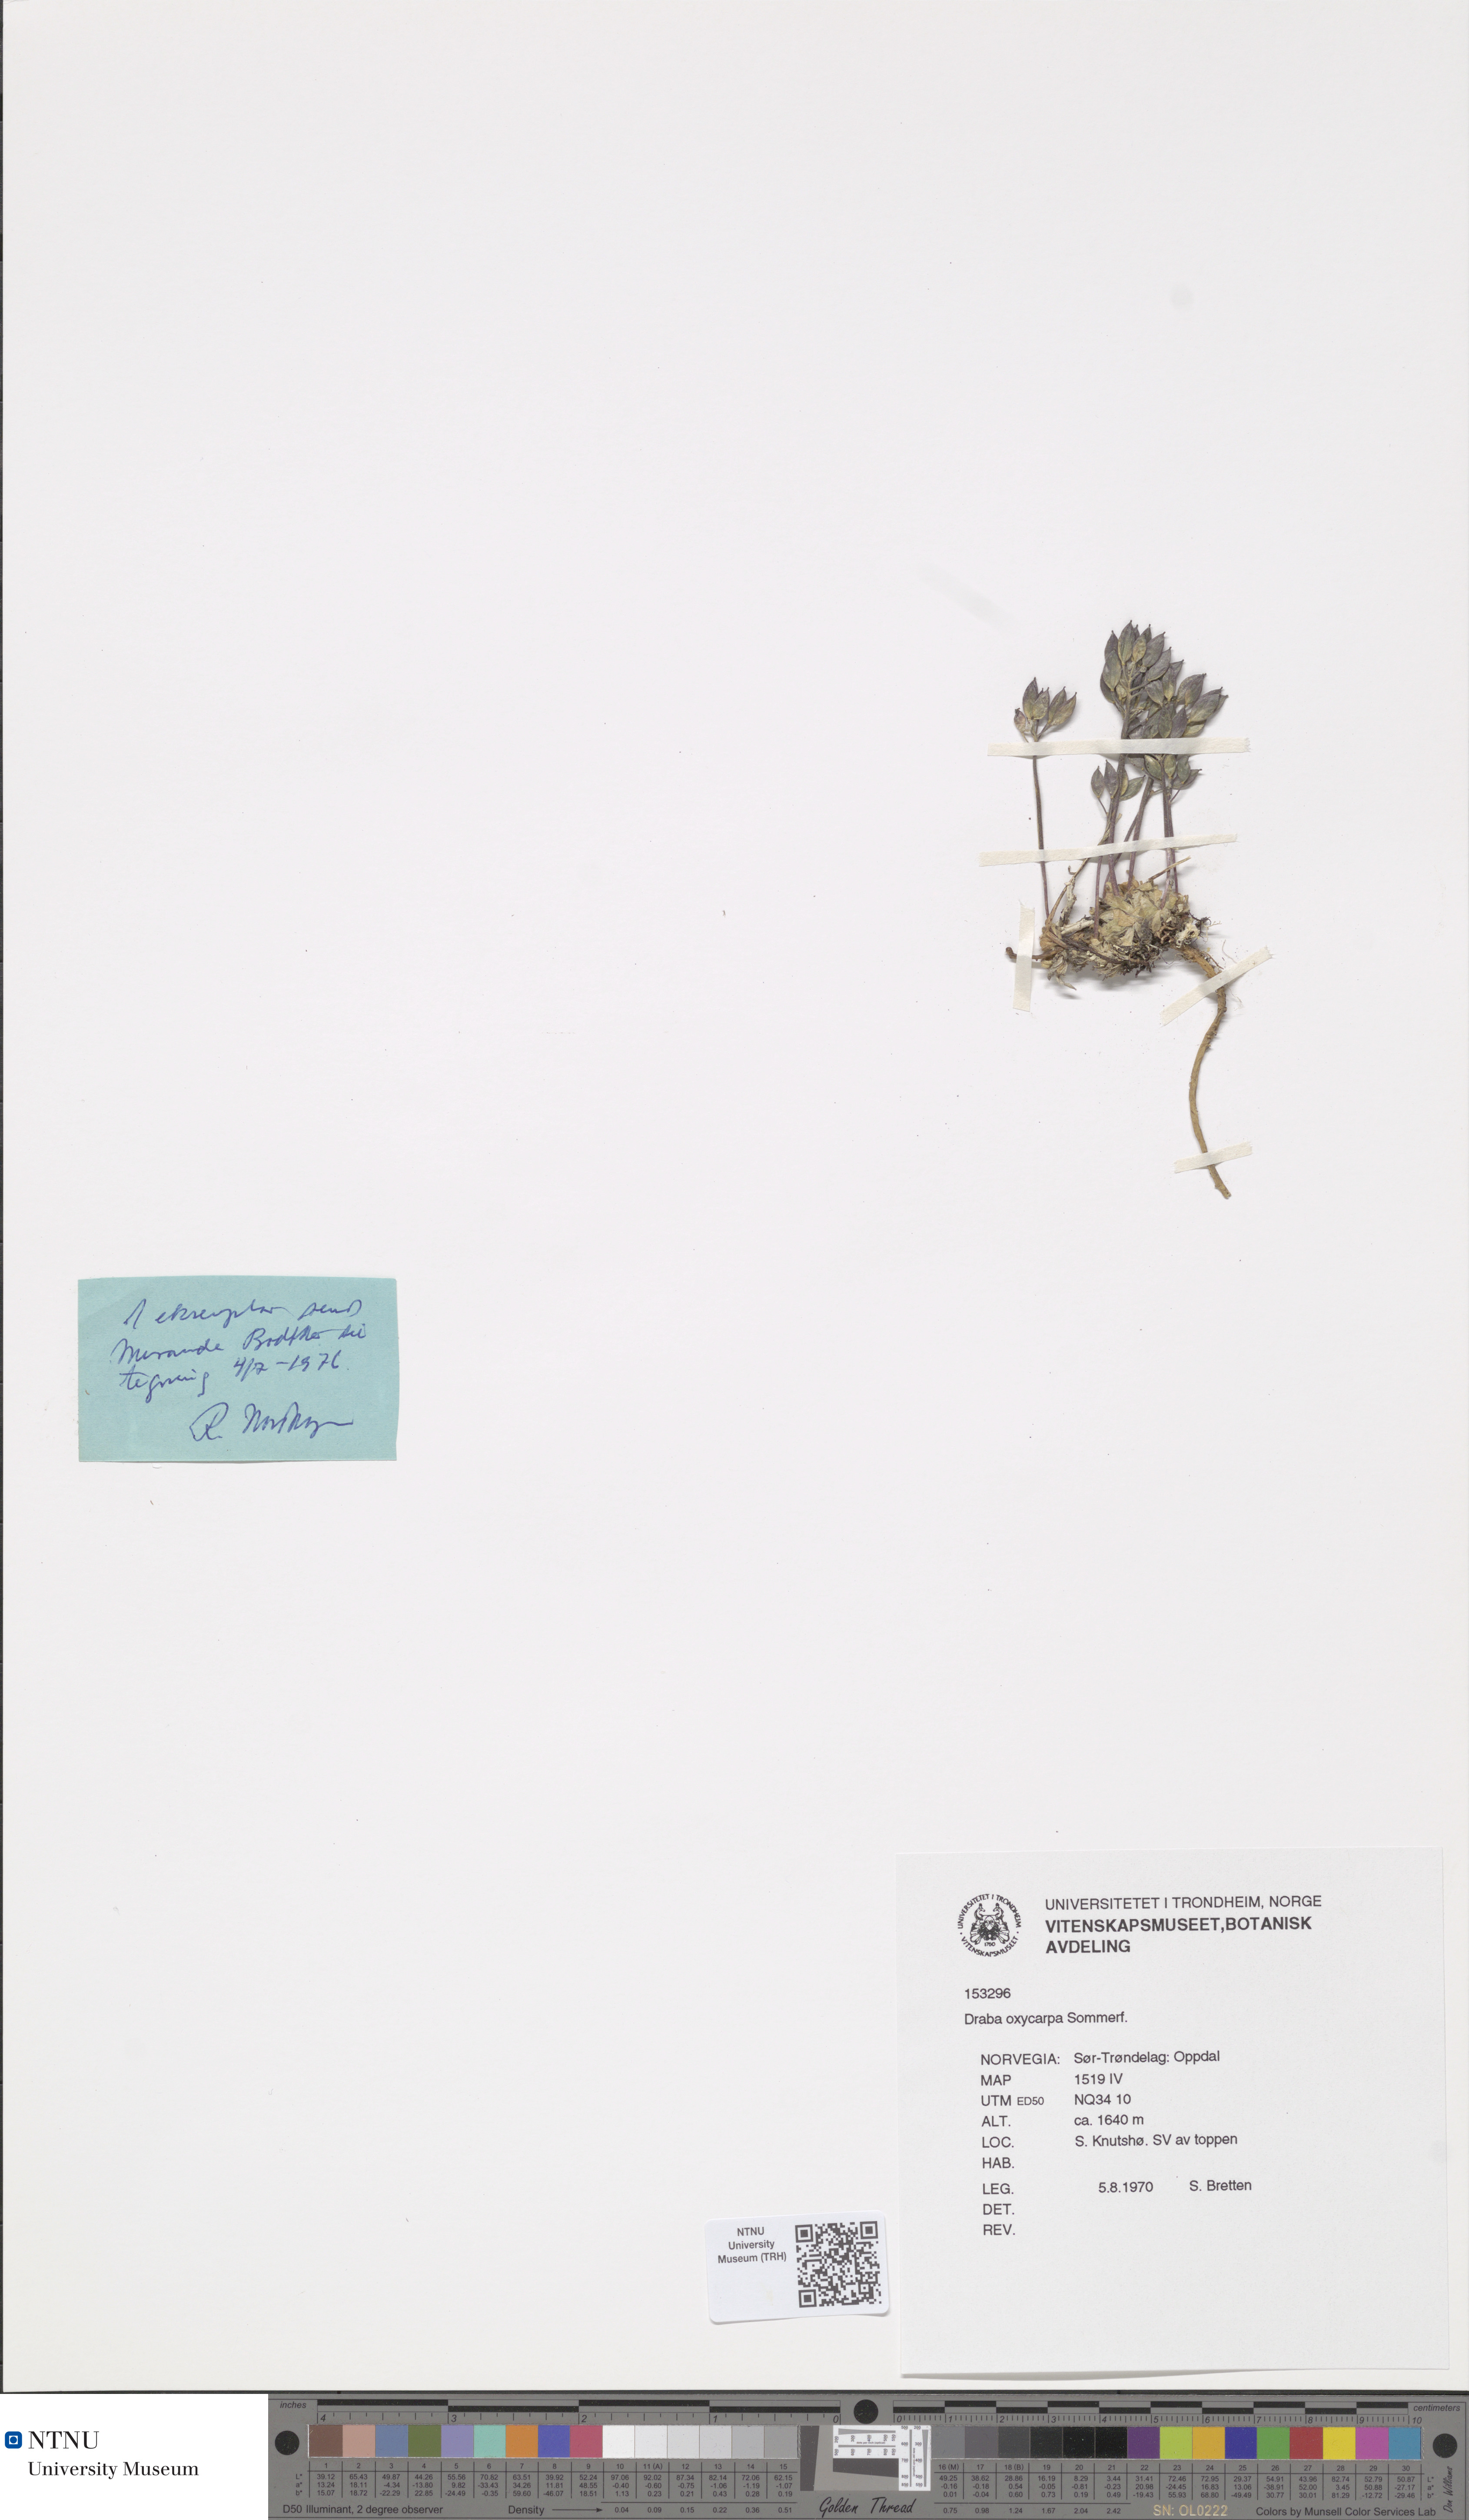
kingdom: Plantae
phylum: Tracheophyta
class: Magnoliopsida
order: Brassicales
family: Brassicaceae
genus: Draba
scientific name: Draba oxycarpa
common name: Sharp-fruited whitlow-grass
